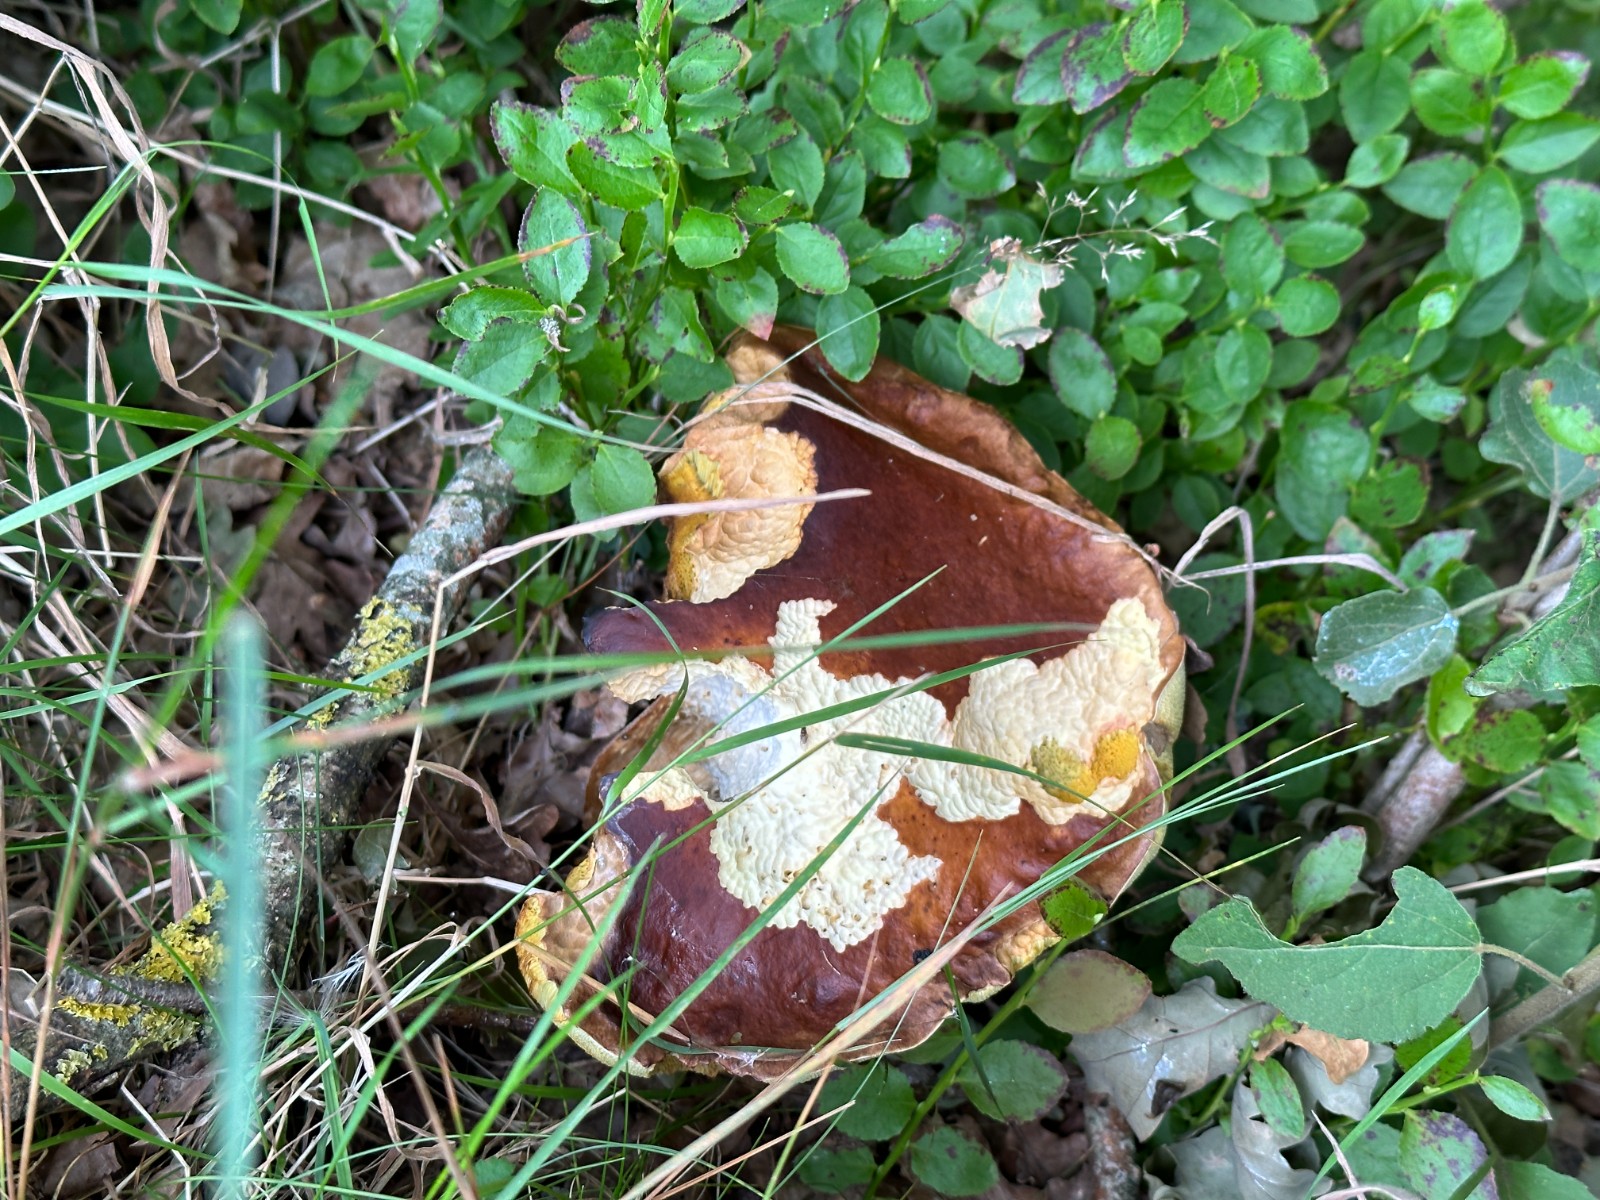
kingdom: Fungi
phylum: Basidiomycota
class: Agaricomycetes
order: Boletales
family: Boletaceae
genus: Boletus
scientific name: Boletus edulis
